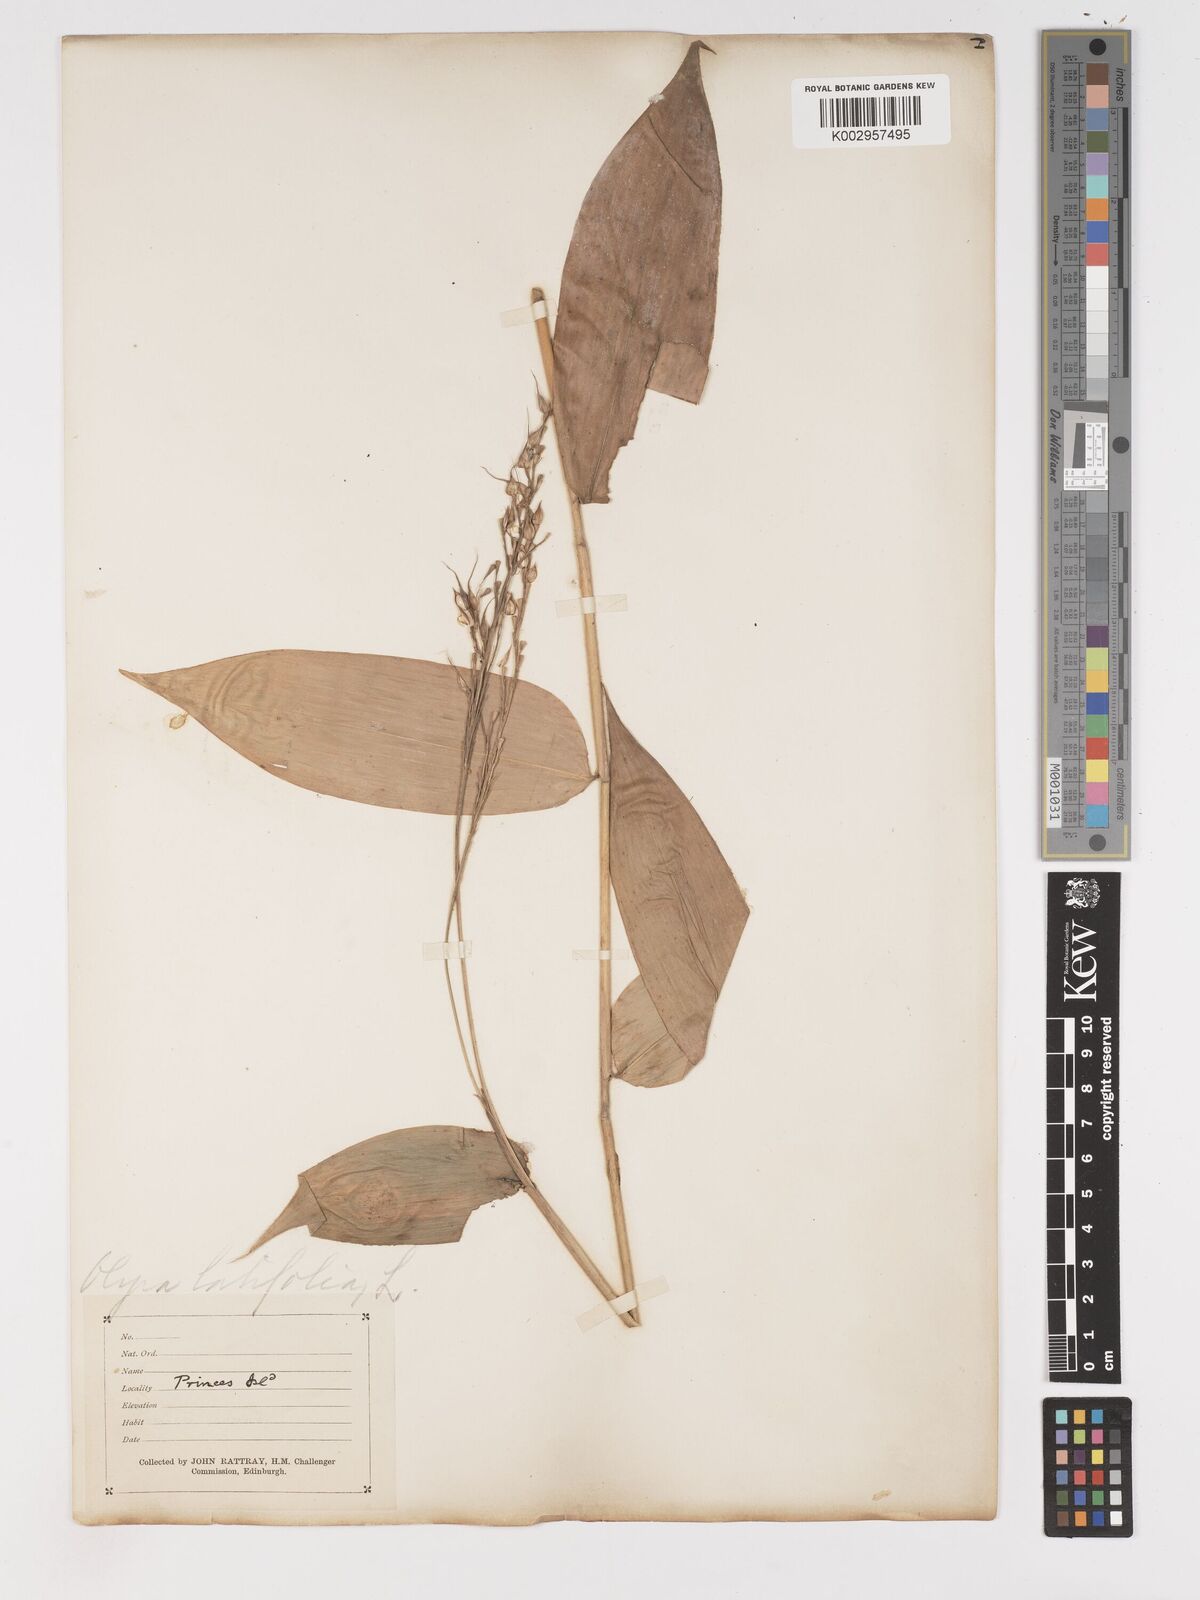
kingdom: Plantae
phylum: Tracheophyta
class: Liliopsida
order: Poales
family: Poaceae
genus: Olyra
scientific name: Olyra latifolia
